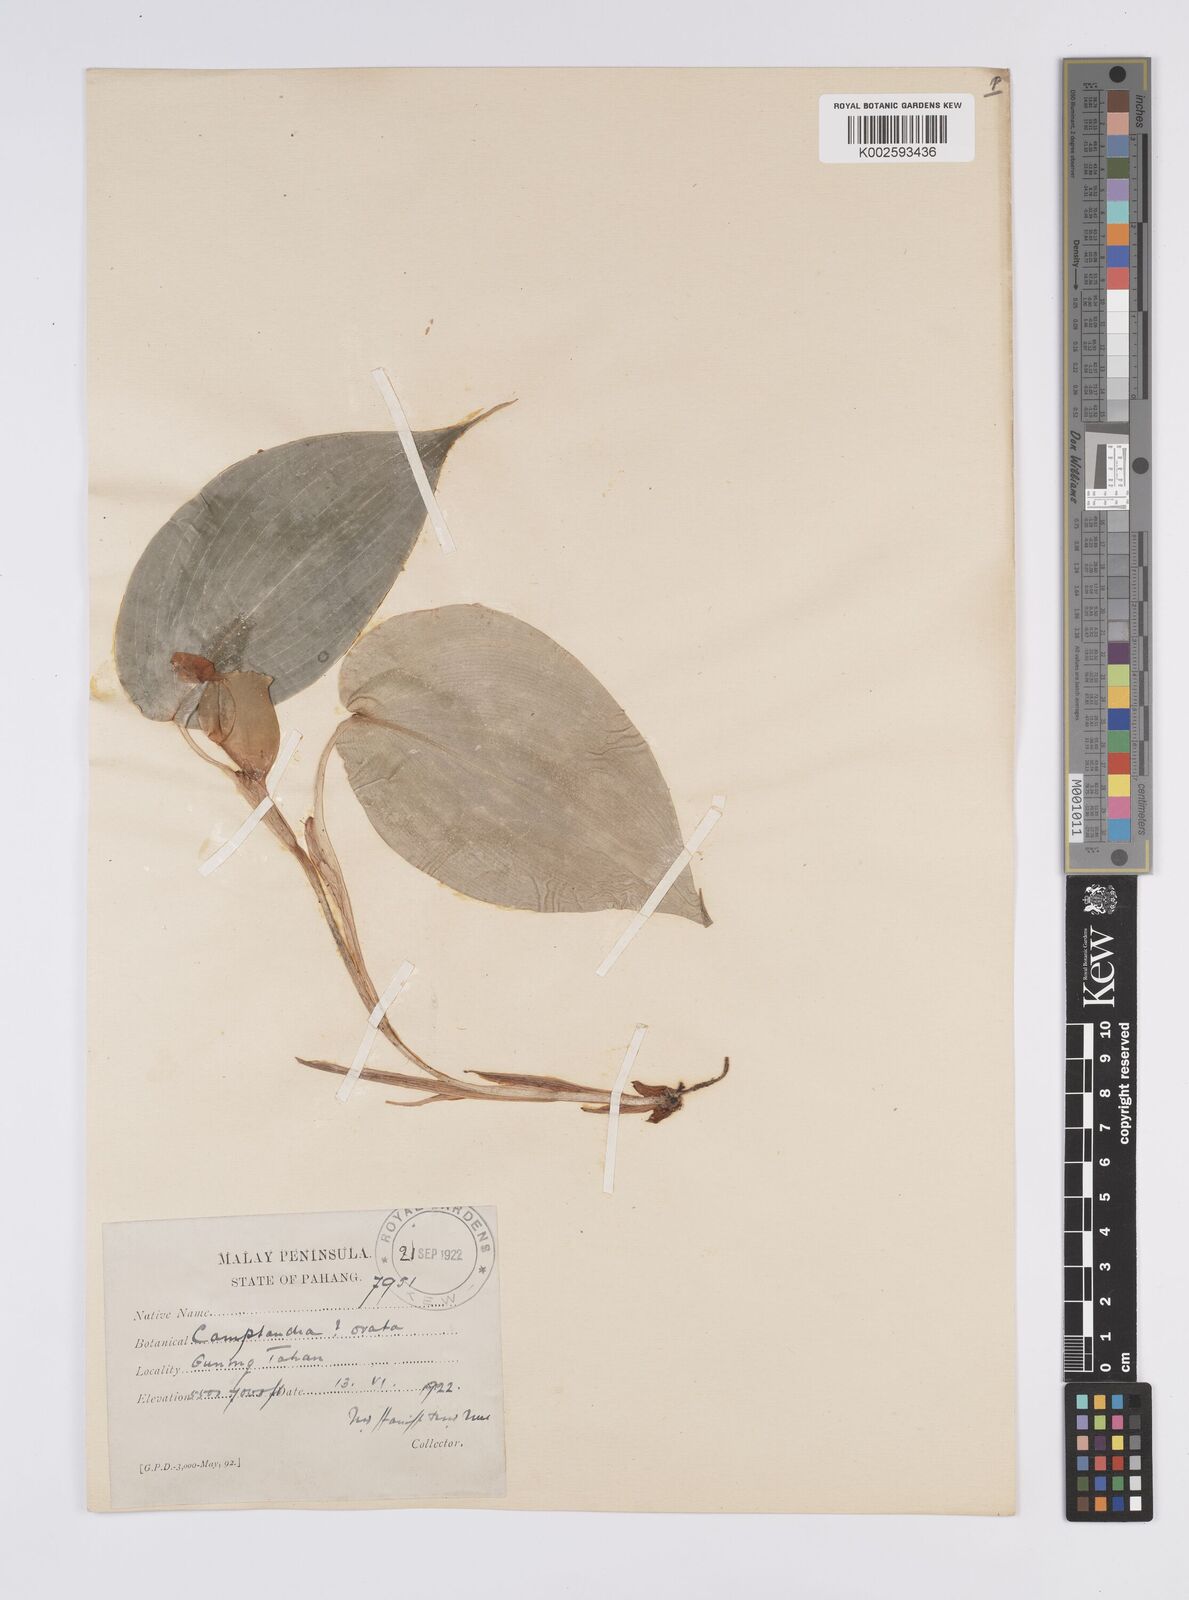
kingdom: Plantae
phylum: Tracheophyta
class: Liliopsida
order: Zingiberales
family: Zingiberaceae
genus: Camptandra
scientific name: Camptandra ovata
